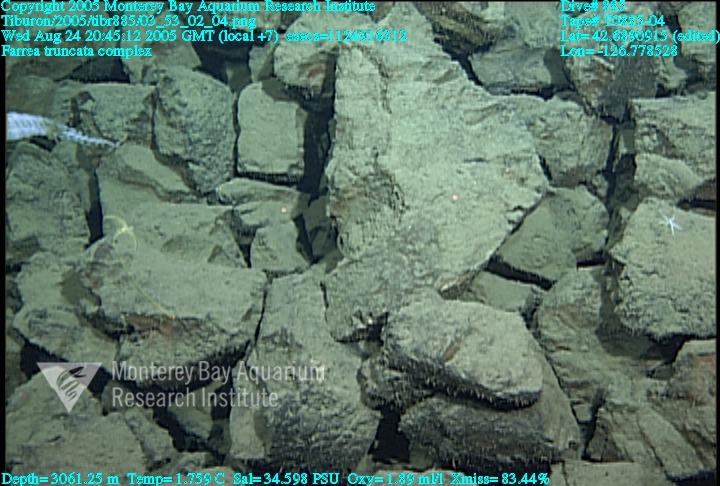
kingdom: Animalia
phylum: Porifera
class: Hexactinellida
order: Sceptrulophora
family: Farreidae
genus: Farrea
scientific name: Farrea truncata
